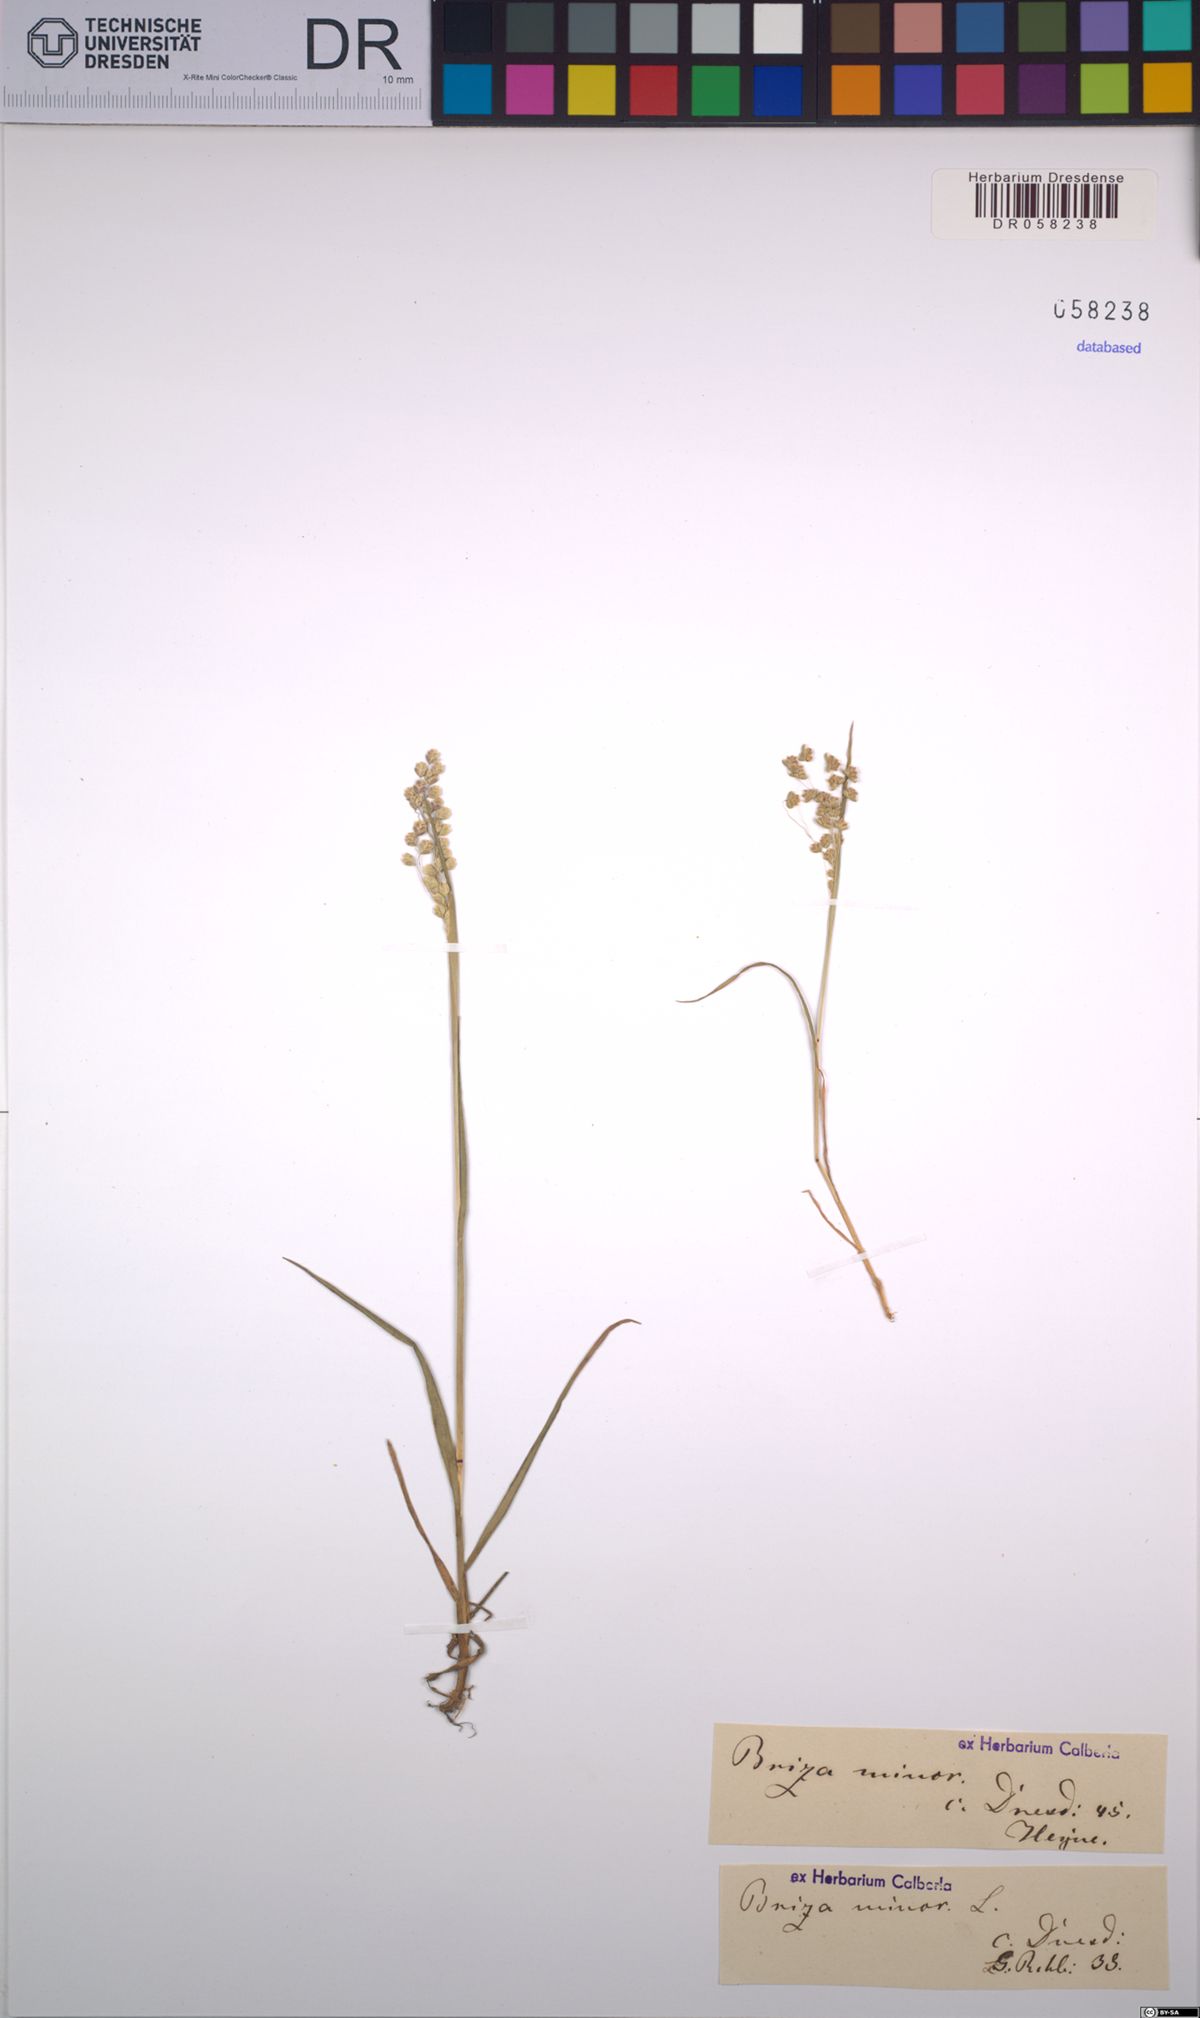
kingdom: Plantae
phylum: Tracheophyta
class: Liliopsida
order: Poales
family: Poaceae
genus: Briza
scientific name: Briza minor
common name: Lesser quaking-grass
